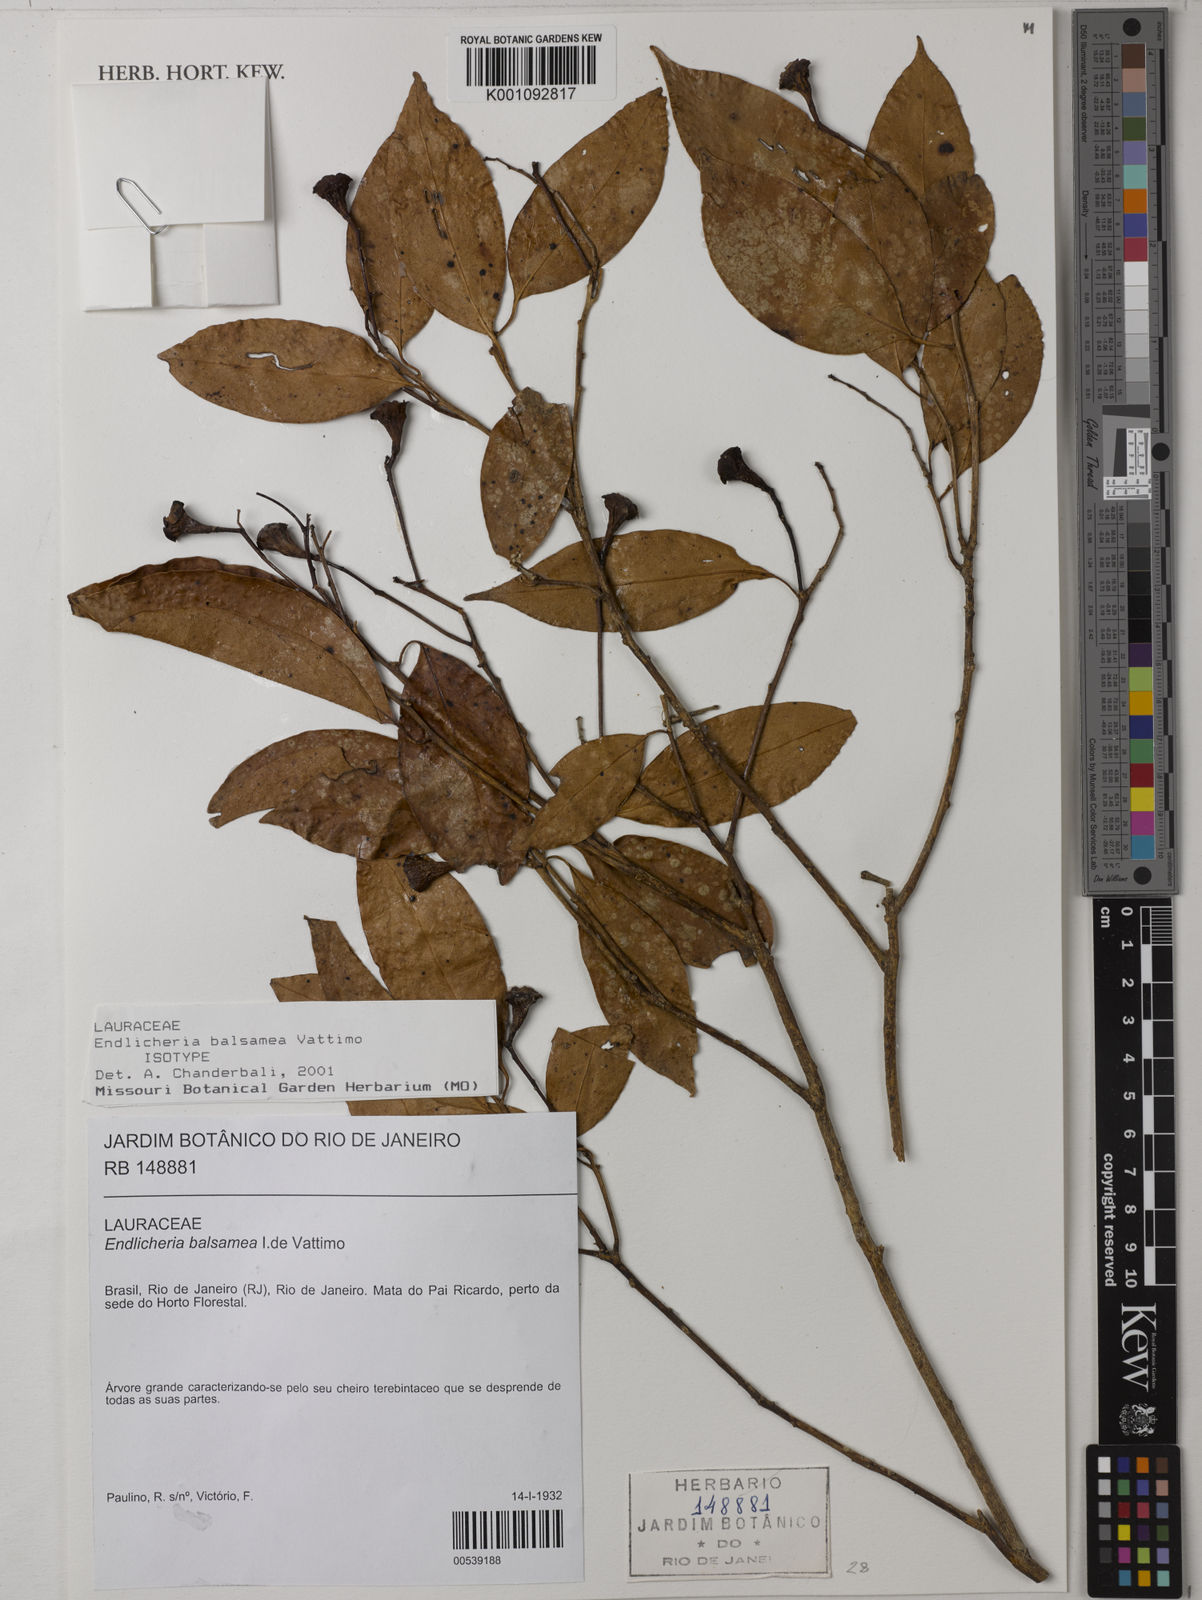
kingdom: Plantae
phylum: Tracheophyta
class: Magnoliopsida
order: Laurales
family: Lauraceae
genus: Endlicheria
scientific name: Endlicheria balsamea
